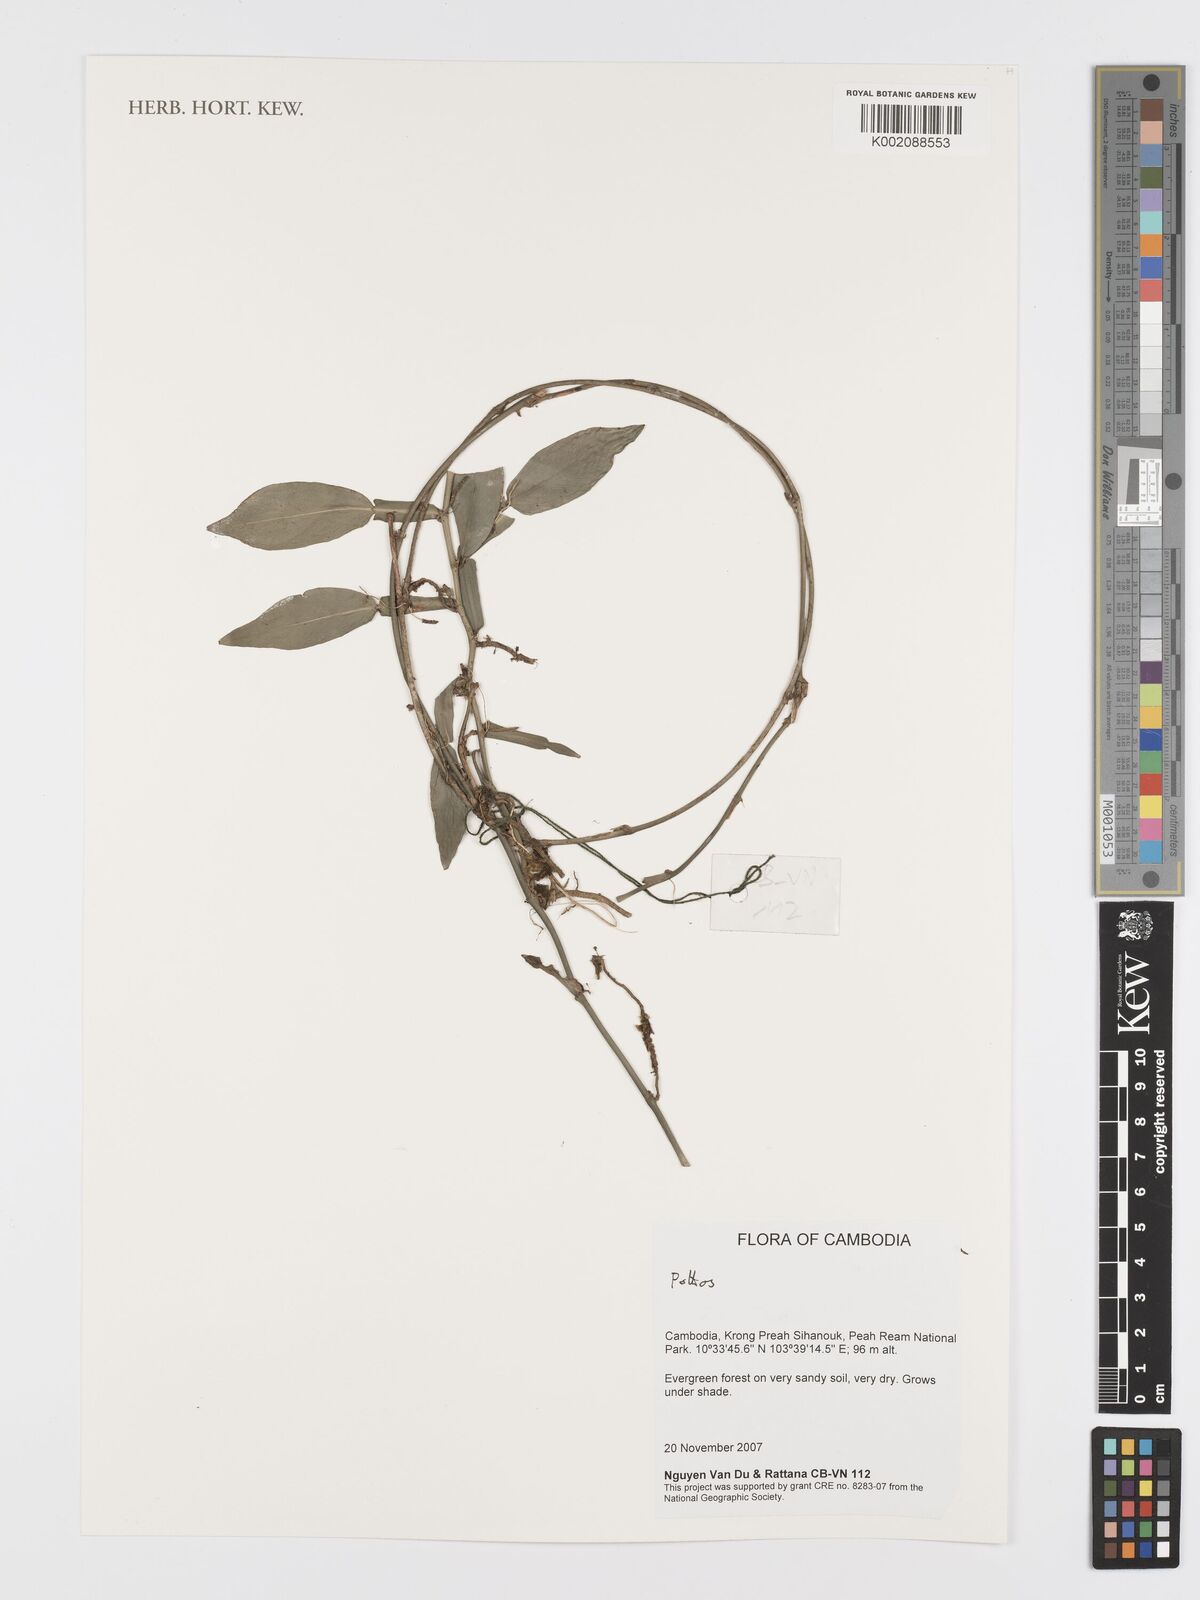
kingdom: Plantae
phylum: Tracheophyta
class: Liliopsida
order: Alismatales
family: Araceae
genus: Pothos
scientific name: Pothos scandens
